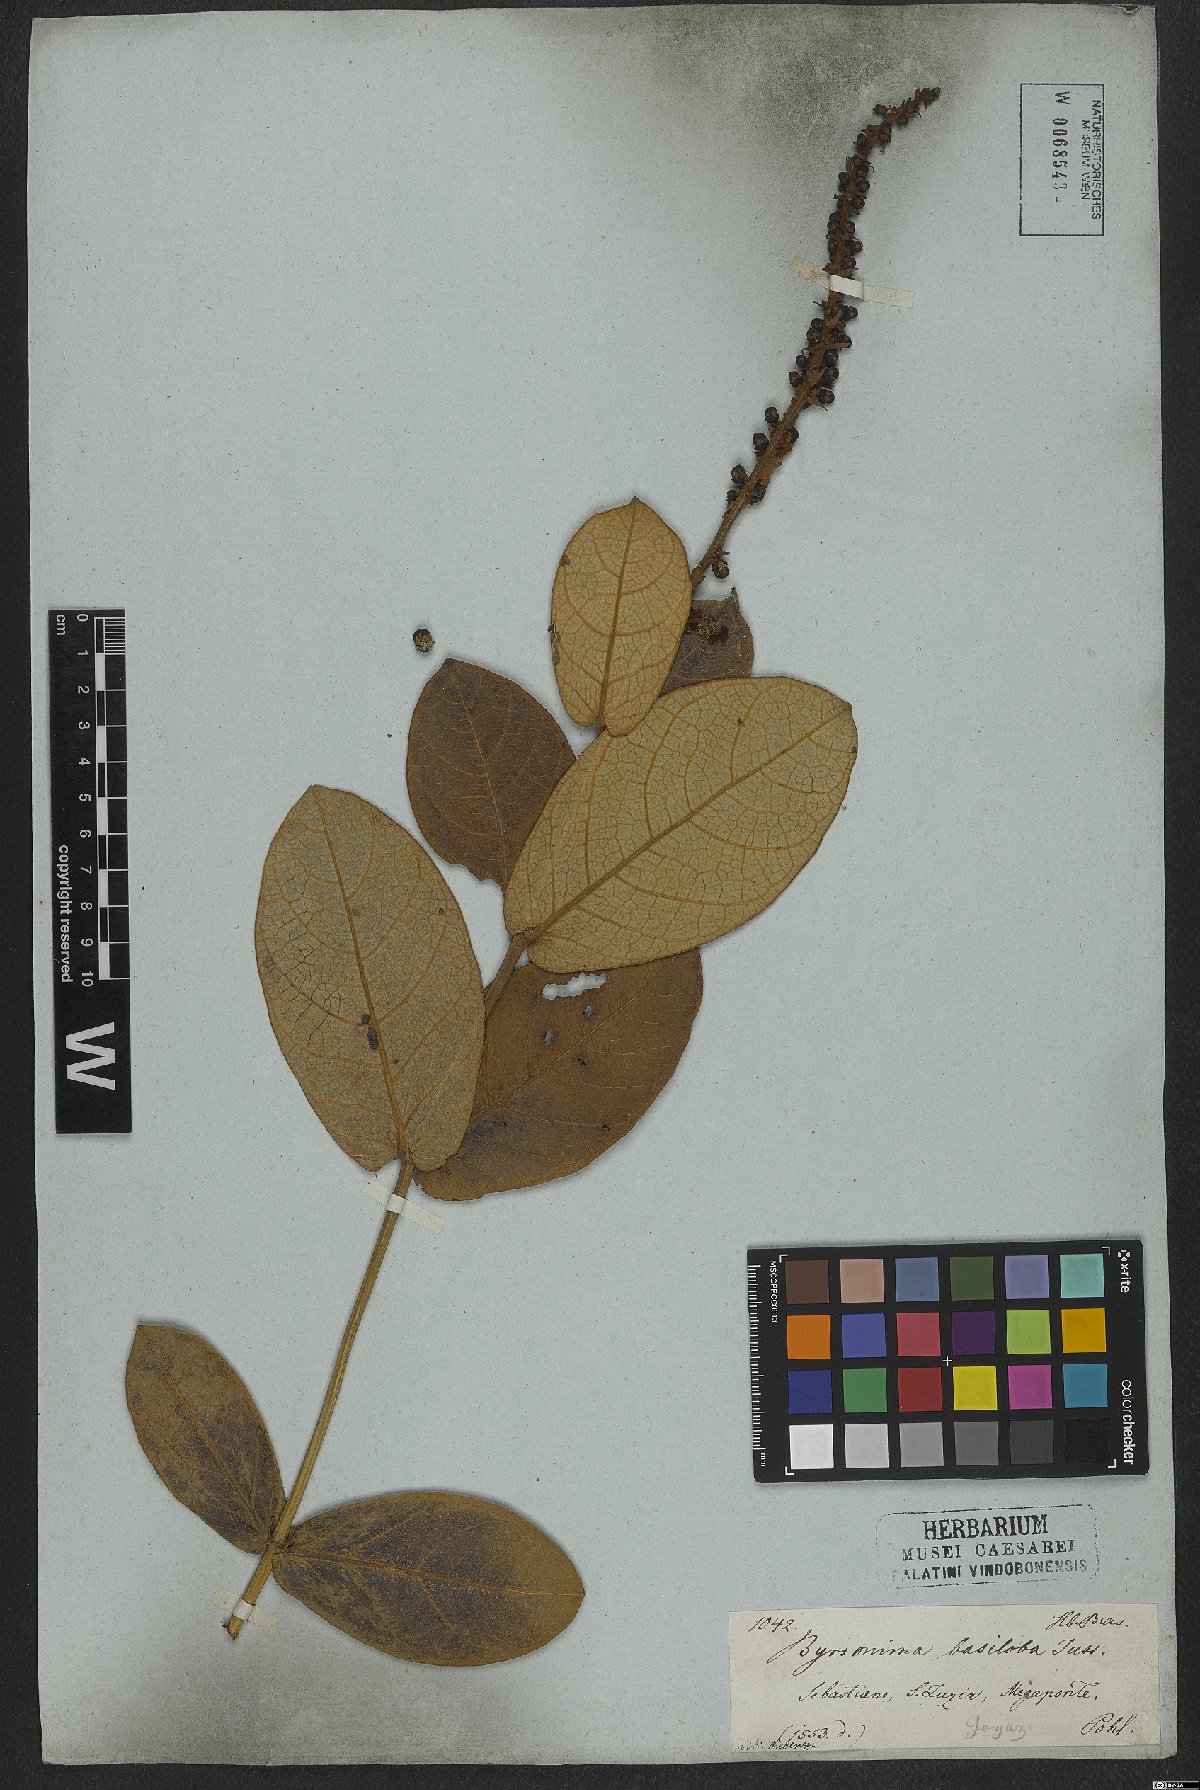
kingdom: Plantae
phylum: Tracheophyta
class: Magnoliopsida
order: Malpighiales
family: Malpighiaceae
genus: Byrsonima
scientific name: Byrsonima basiloba
